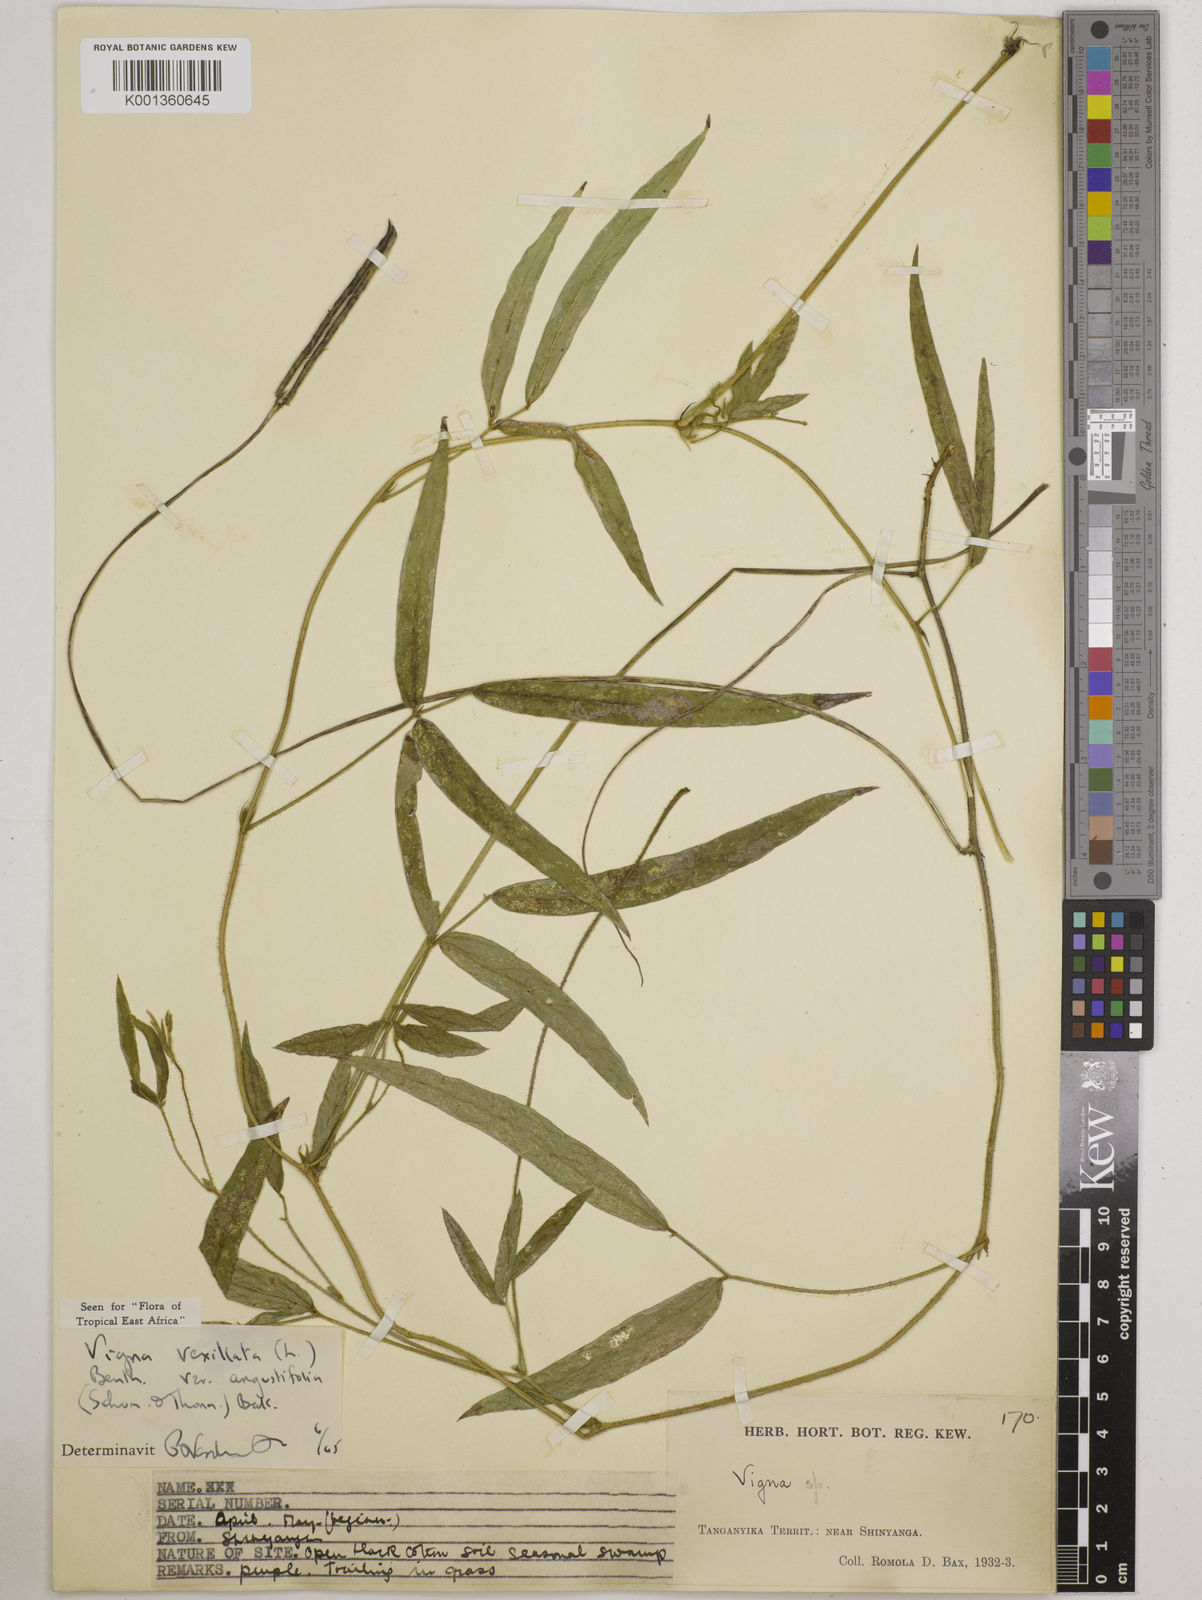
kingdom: Plantae
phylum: Tracheophyta
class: Magnoliopsida
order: Fabales
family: Fabaceae
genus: Vigna
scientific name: Vigna vexillata
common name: Zombi pea
